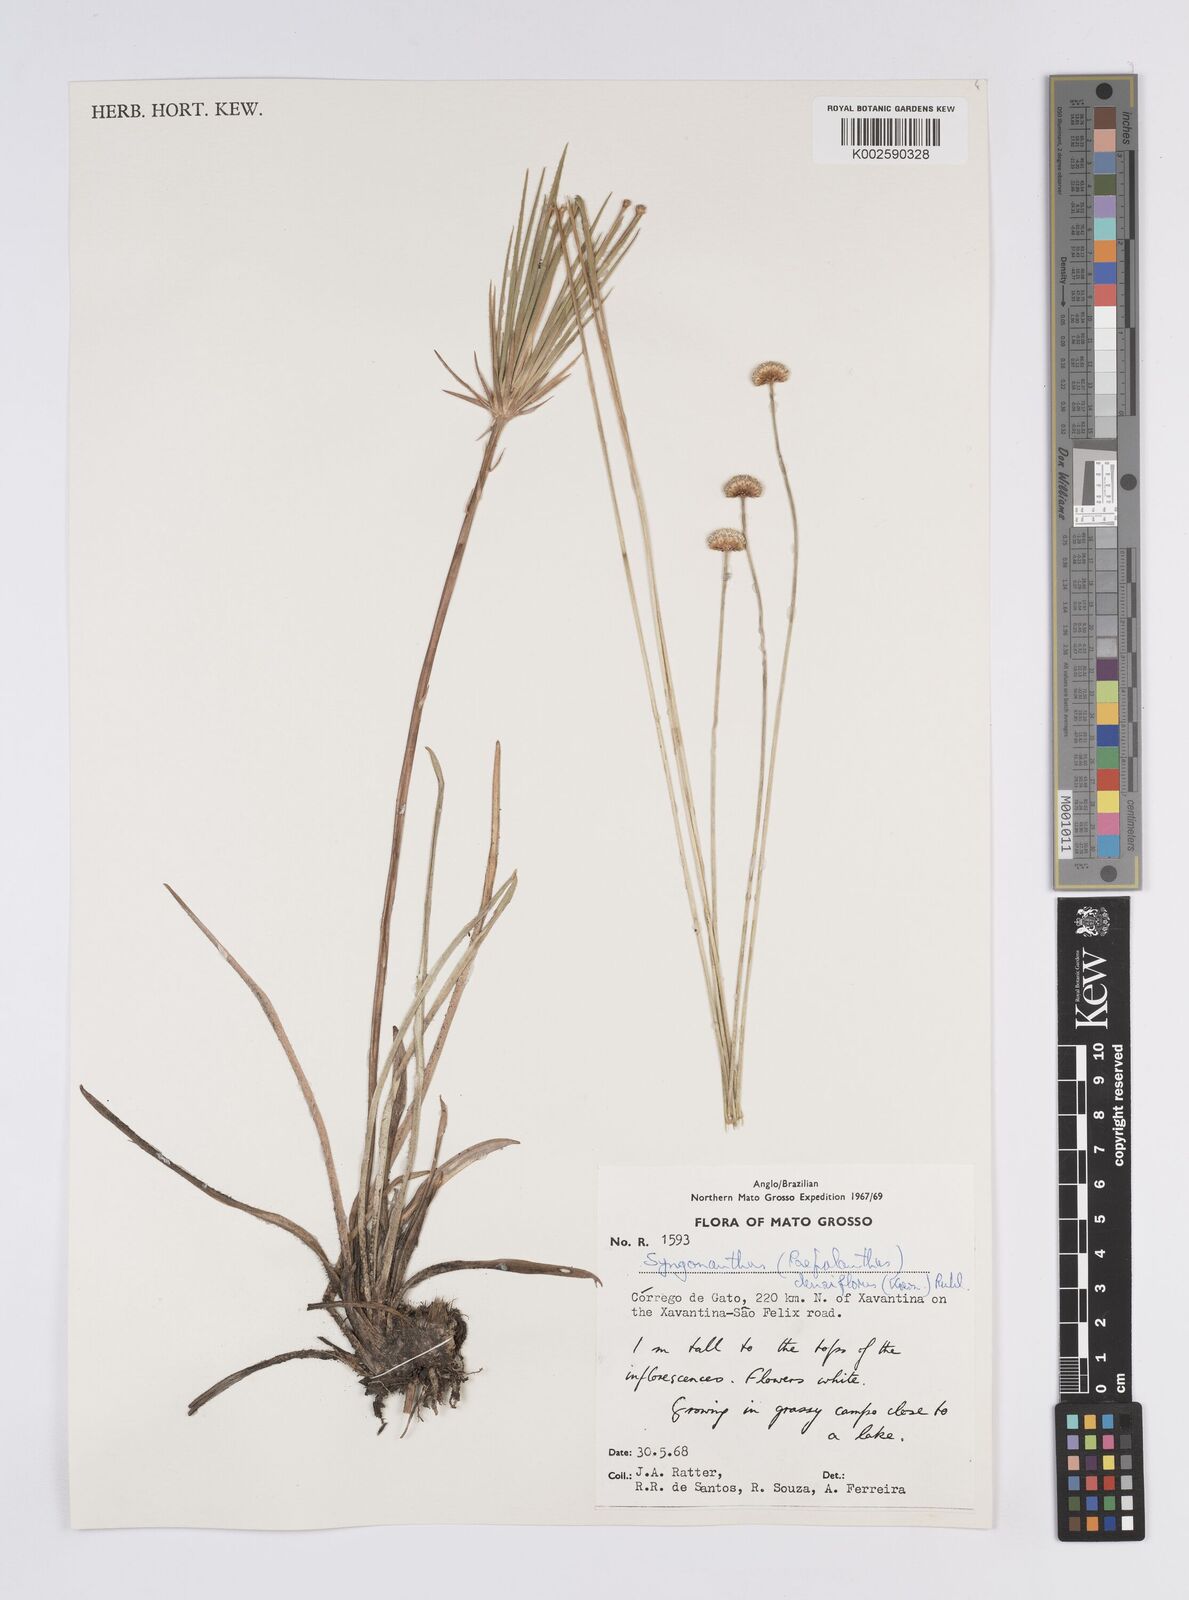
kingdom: Plantae
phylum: Tracheophyta
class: Liliopsida
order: Poales
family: Eriocaulaceae
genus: Syngonanthus
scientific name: Syngonanthus densiflorus
